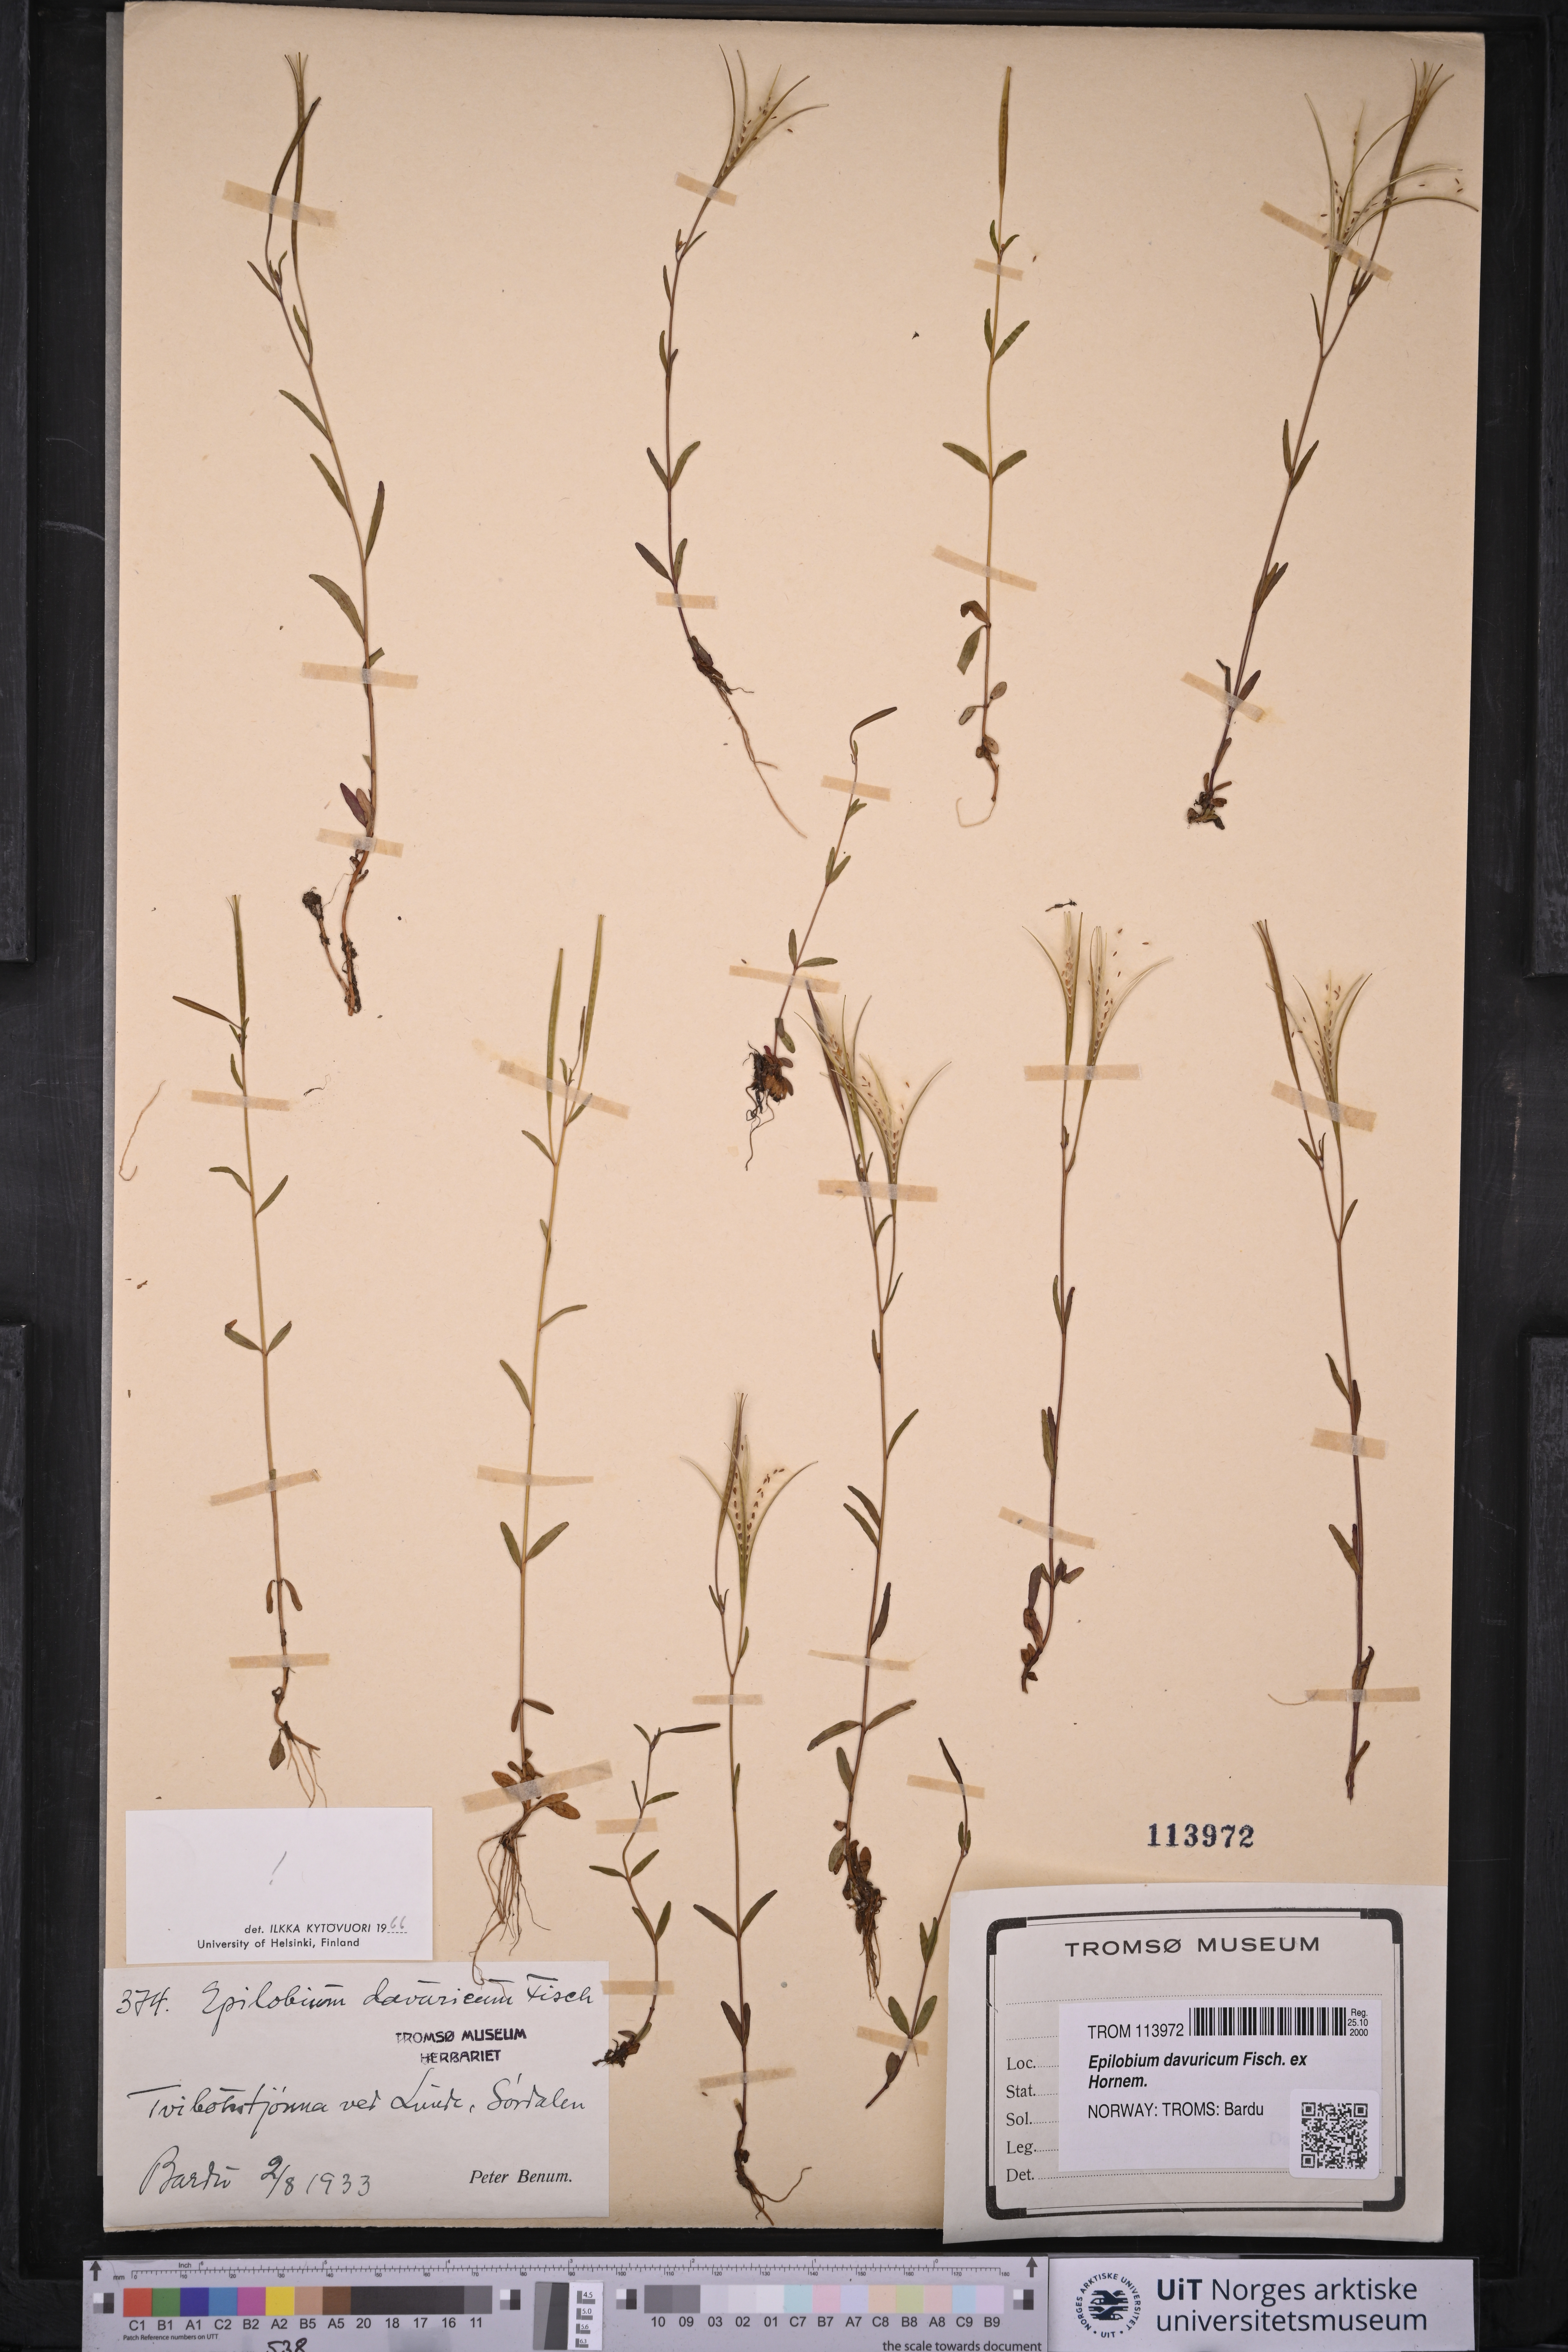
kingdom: Plantae
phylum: Tracheophyta
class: Magnoliopsida
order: Myrtales
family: Onagraceae
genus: Epilobium
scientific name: Epilobium davuricum
